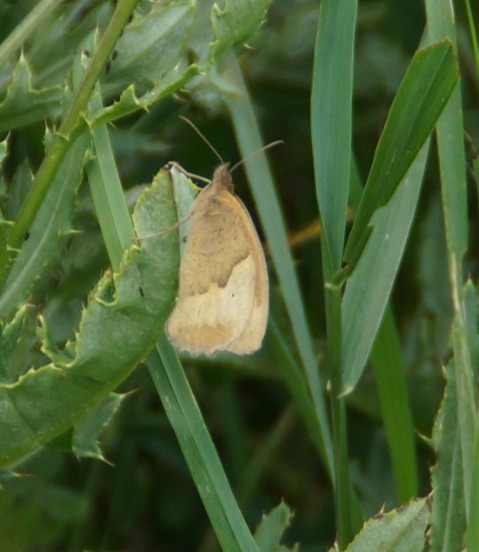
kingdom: Animalia
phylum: Arthropoda
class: Insecta
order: Lepidoptera
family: Nymphalidae
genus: Maniola
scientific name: Maniola jurtina
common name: Græsrandøje
